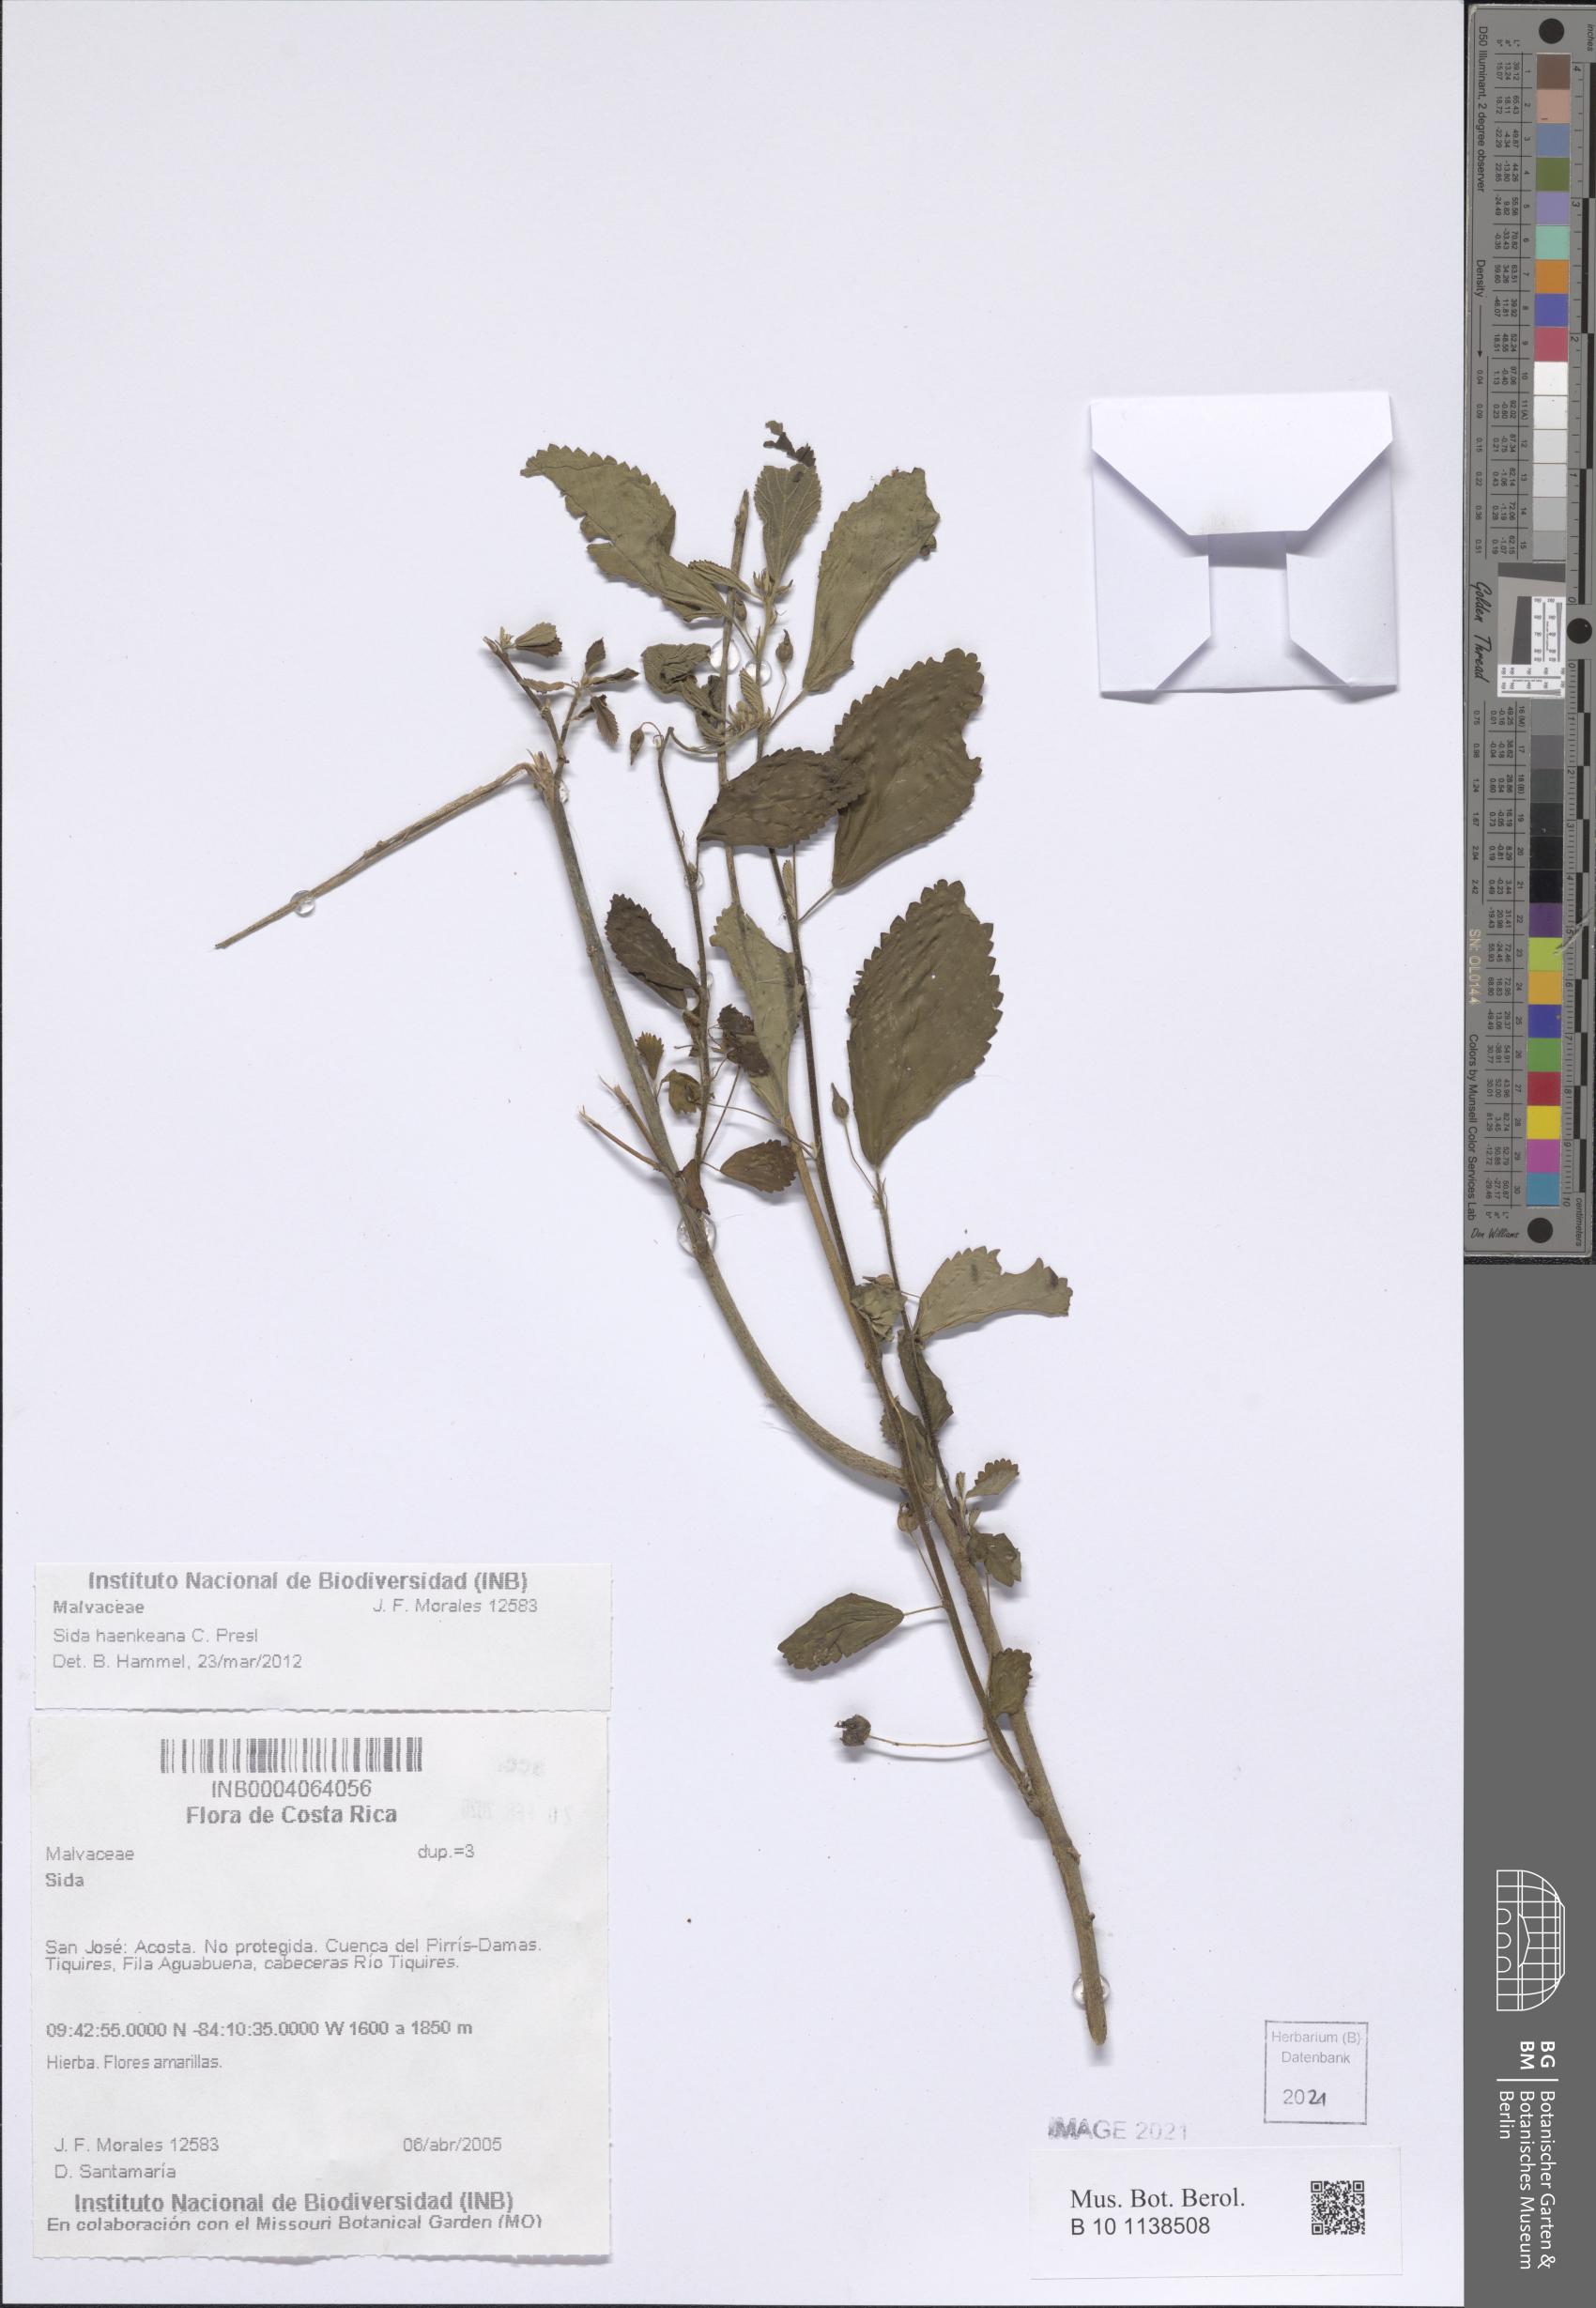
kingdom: Plantae
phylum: Tracheophyta
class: Magnoliopsida
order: Malvales
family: Malvaceae
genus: Sida
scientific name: Sida haenkeana
